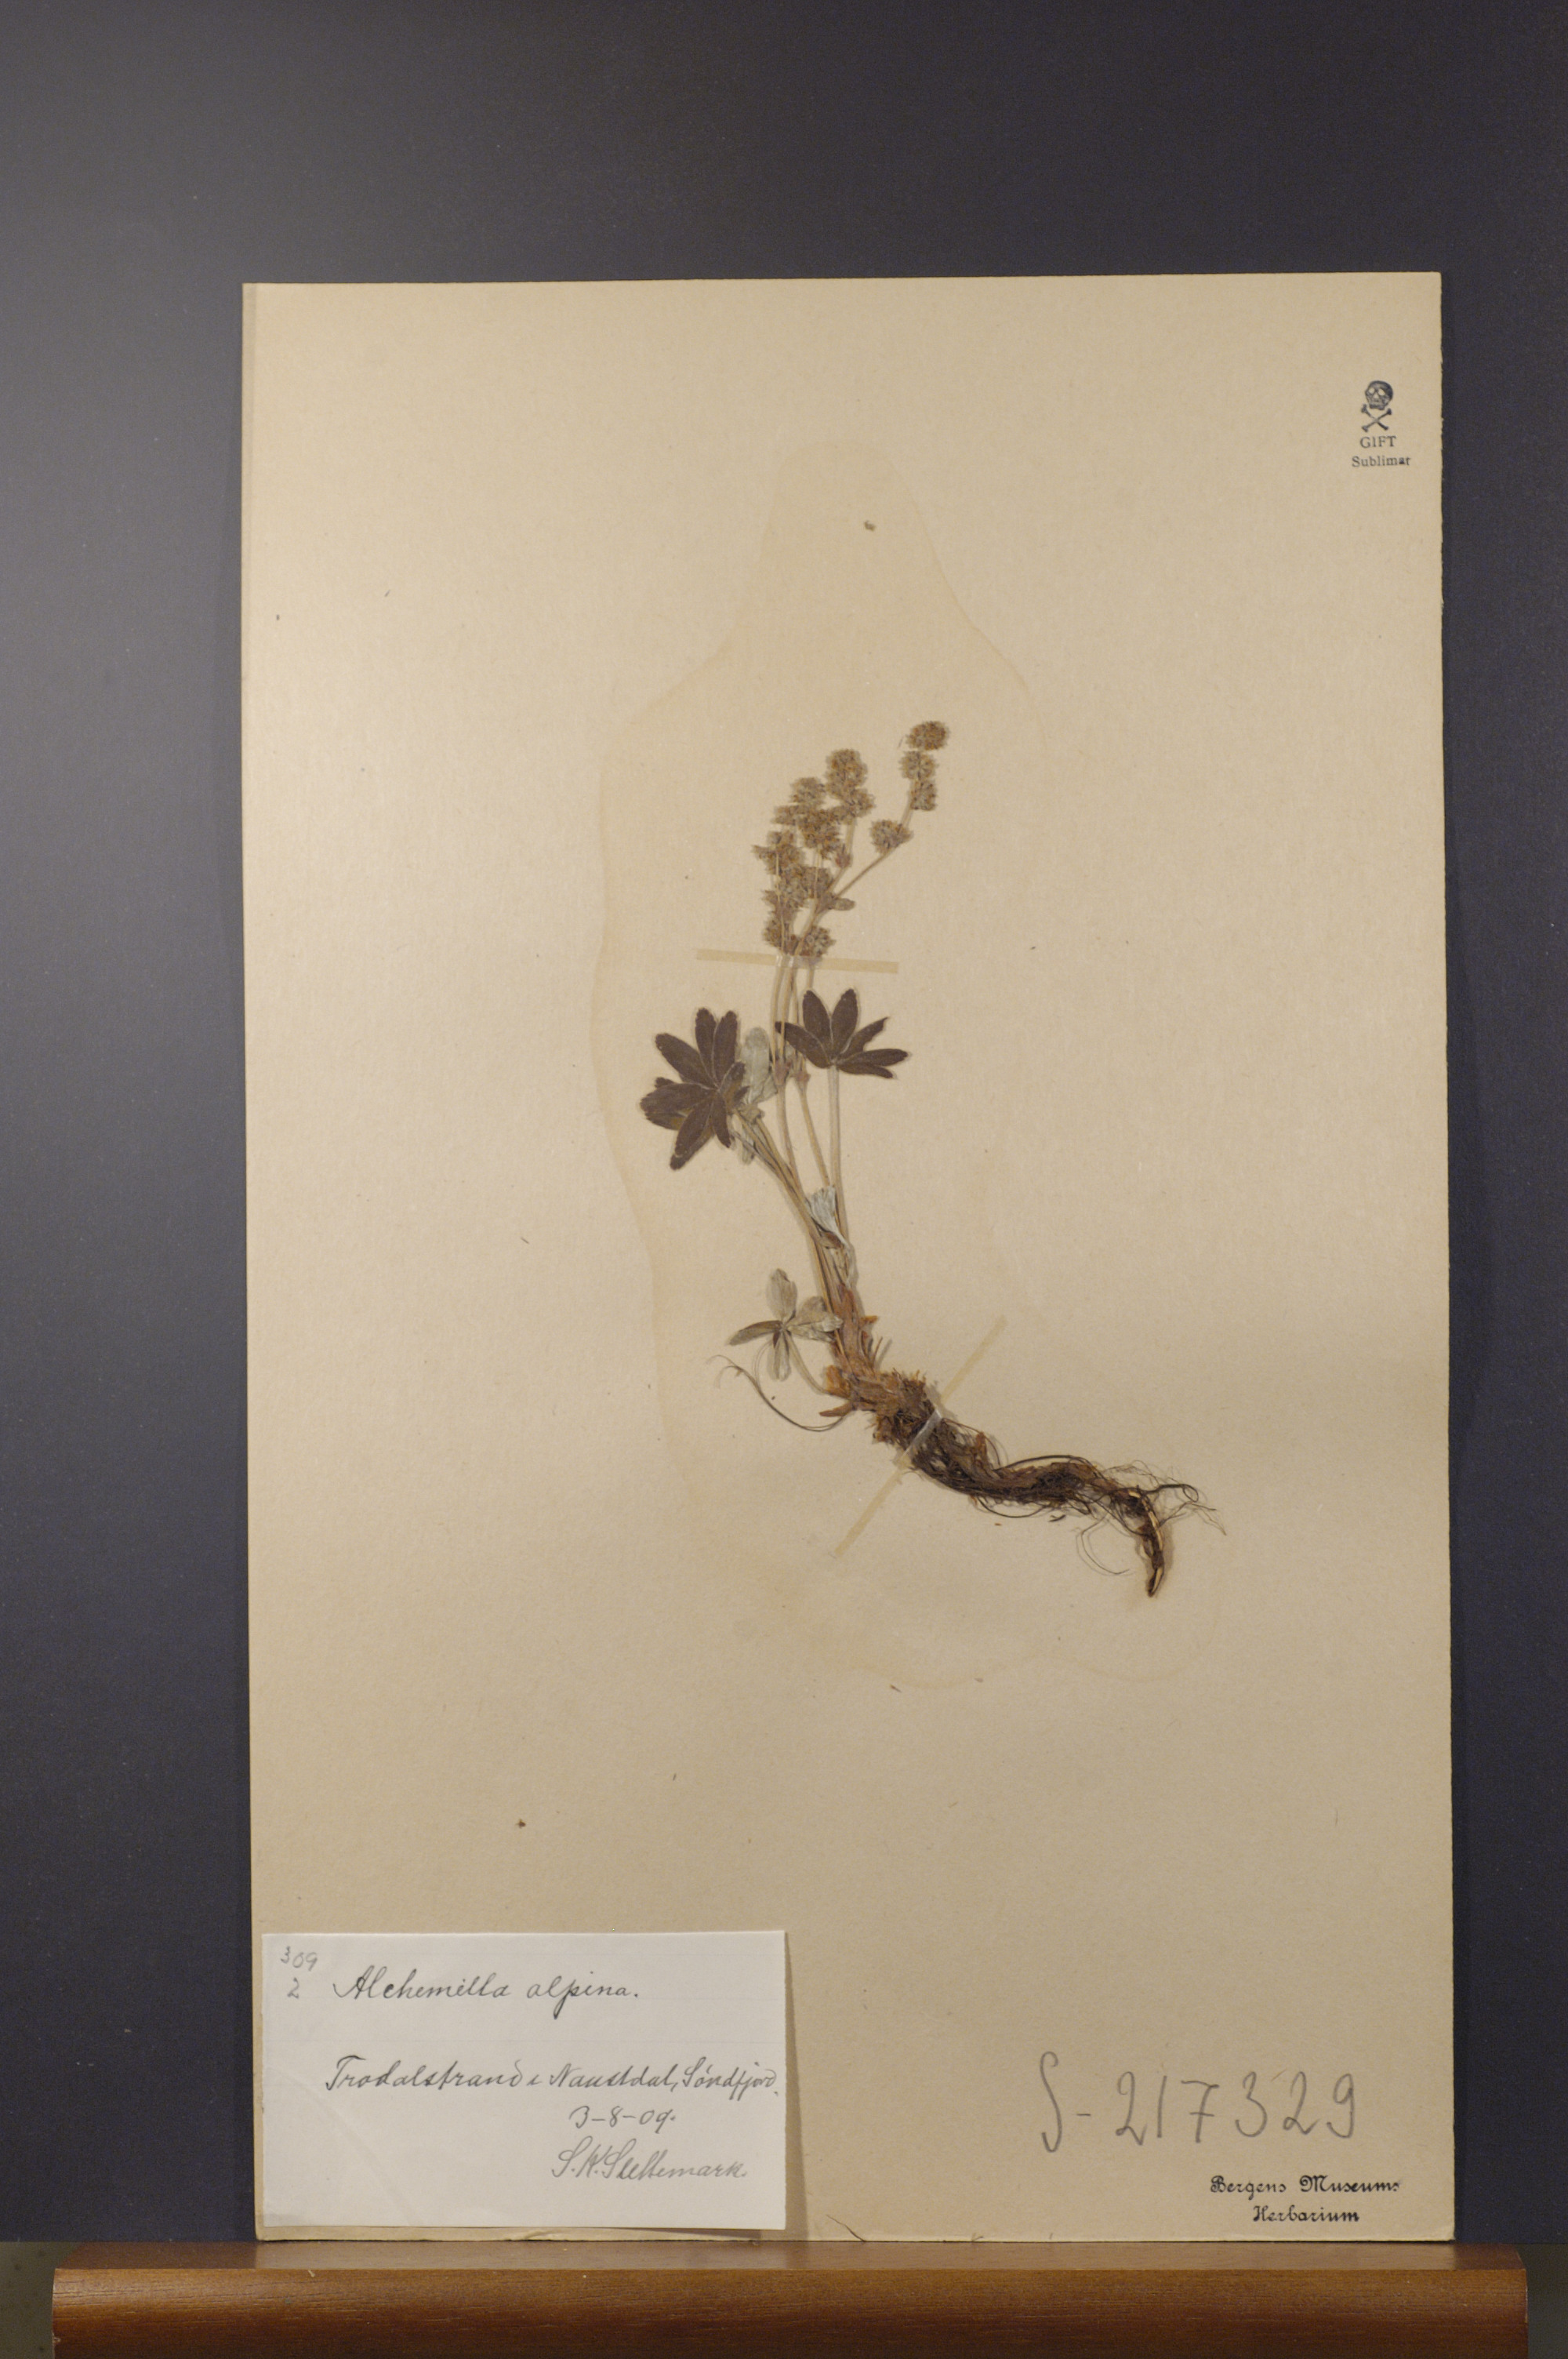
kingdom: Plantae
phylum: Tracheophyta
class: Magnoliopsida
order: Rosales
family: Rosaceae
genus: Alchemilla
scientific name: Alchemilla alpina
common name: Alpine lady's-mantle
